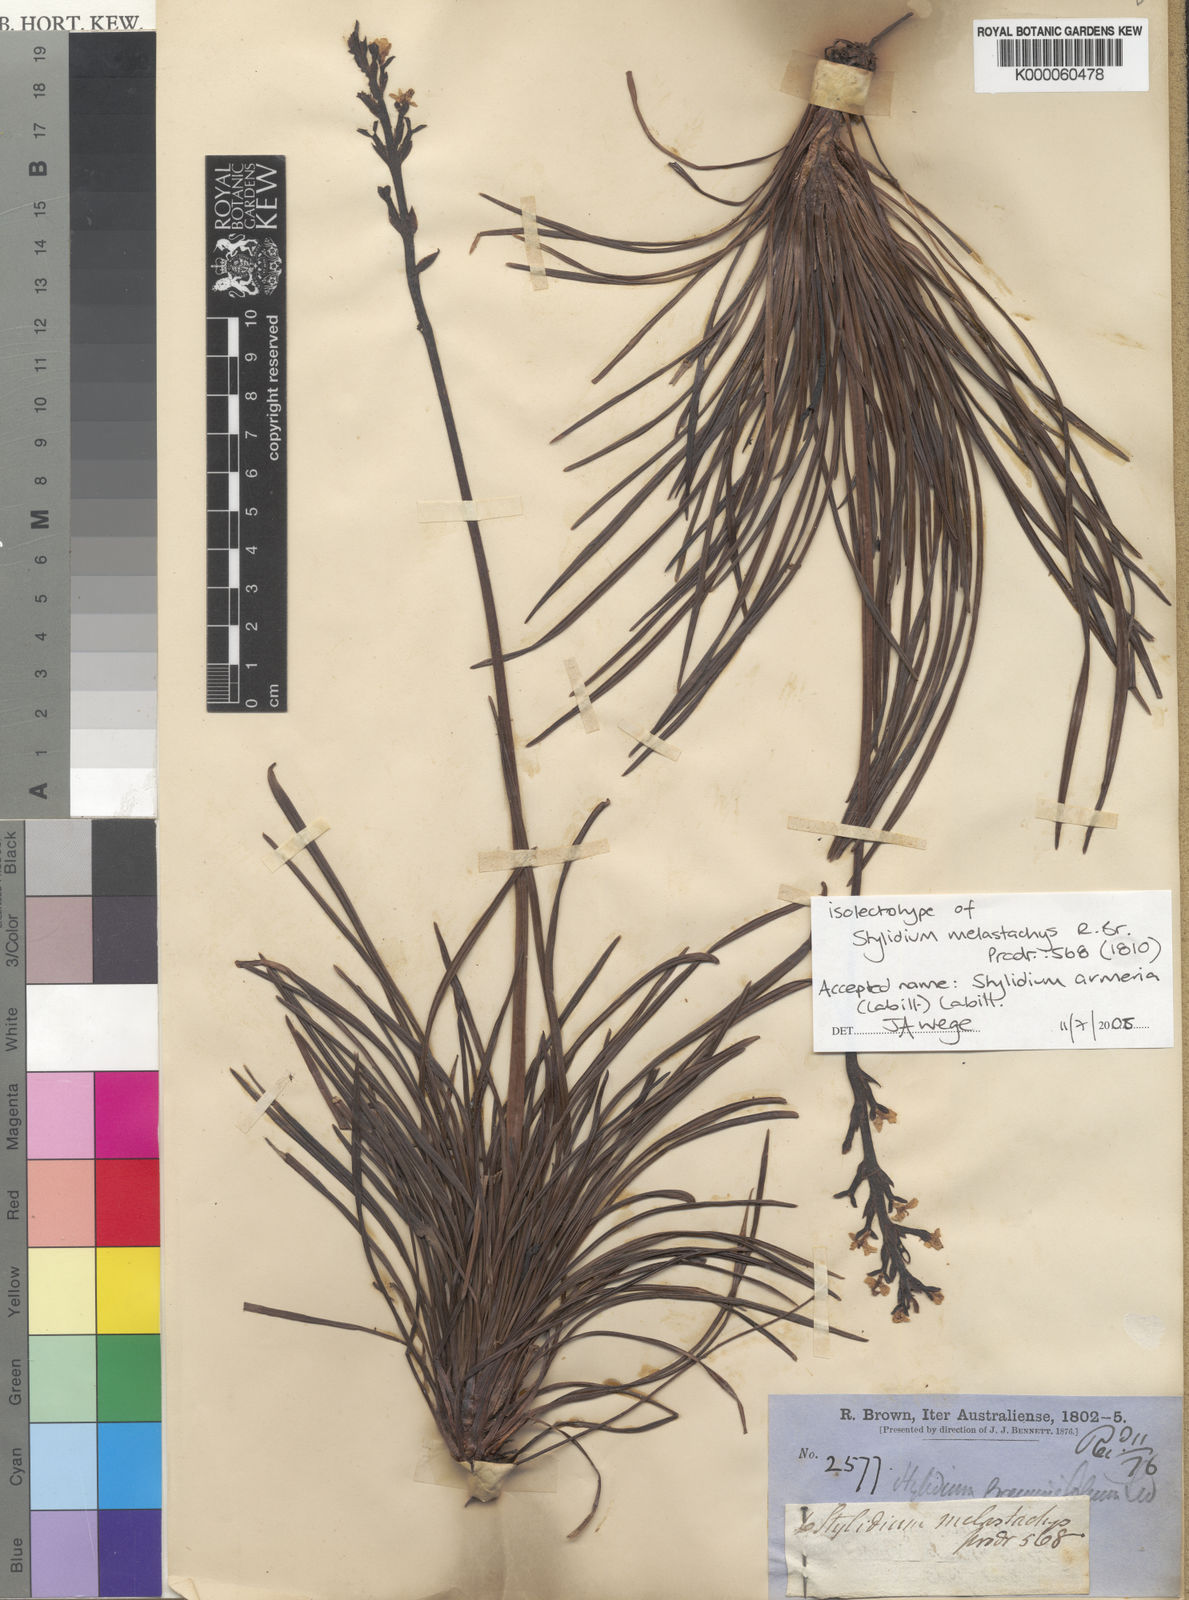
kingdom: Plantae
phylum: Tracheophyta
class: Magnoliopsida
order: Asterales
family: Stylidiaceae
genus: Stylidium
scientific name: Stylidium armeria
